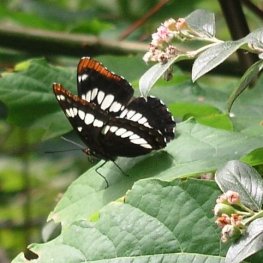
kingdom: Animalia
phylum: Arthropoda
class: Insecta
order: Lepidoptera
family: Nymphalidae
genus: Limenitis
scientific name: Limenitis lorquini
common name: Lorquin's Admiral
